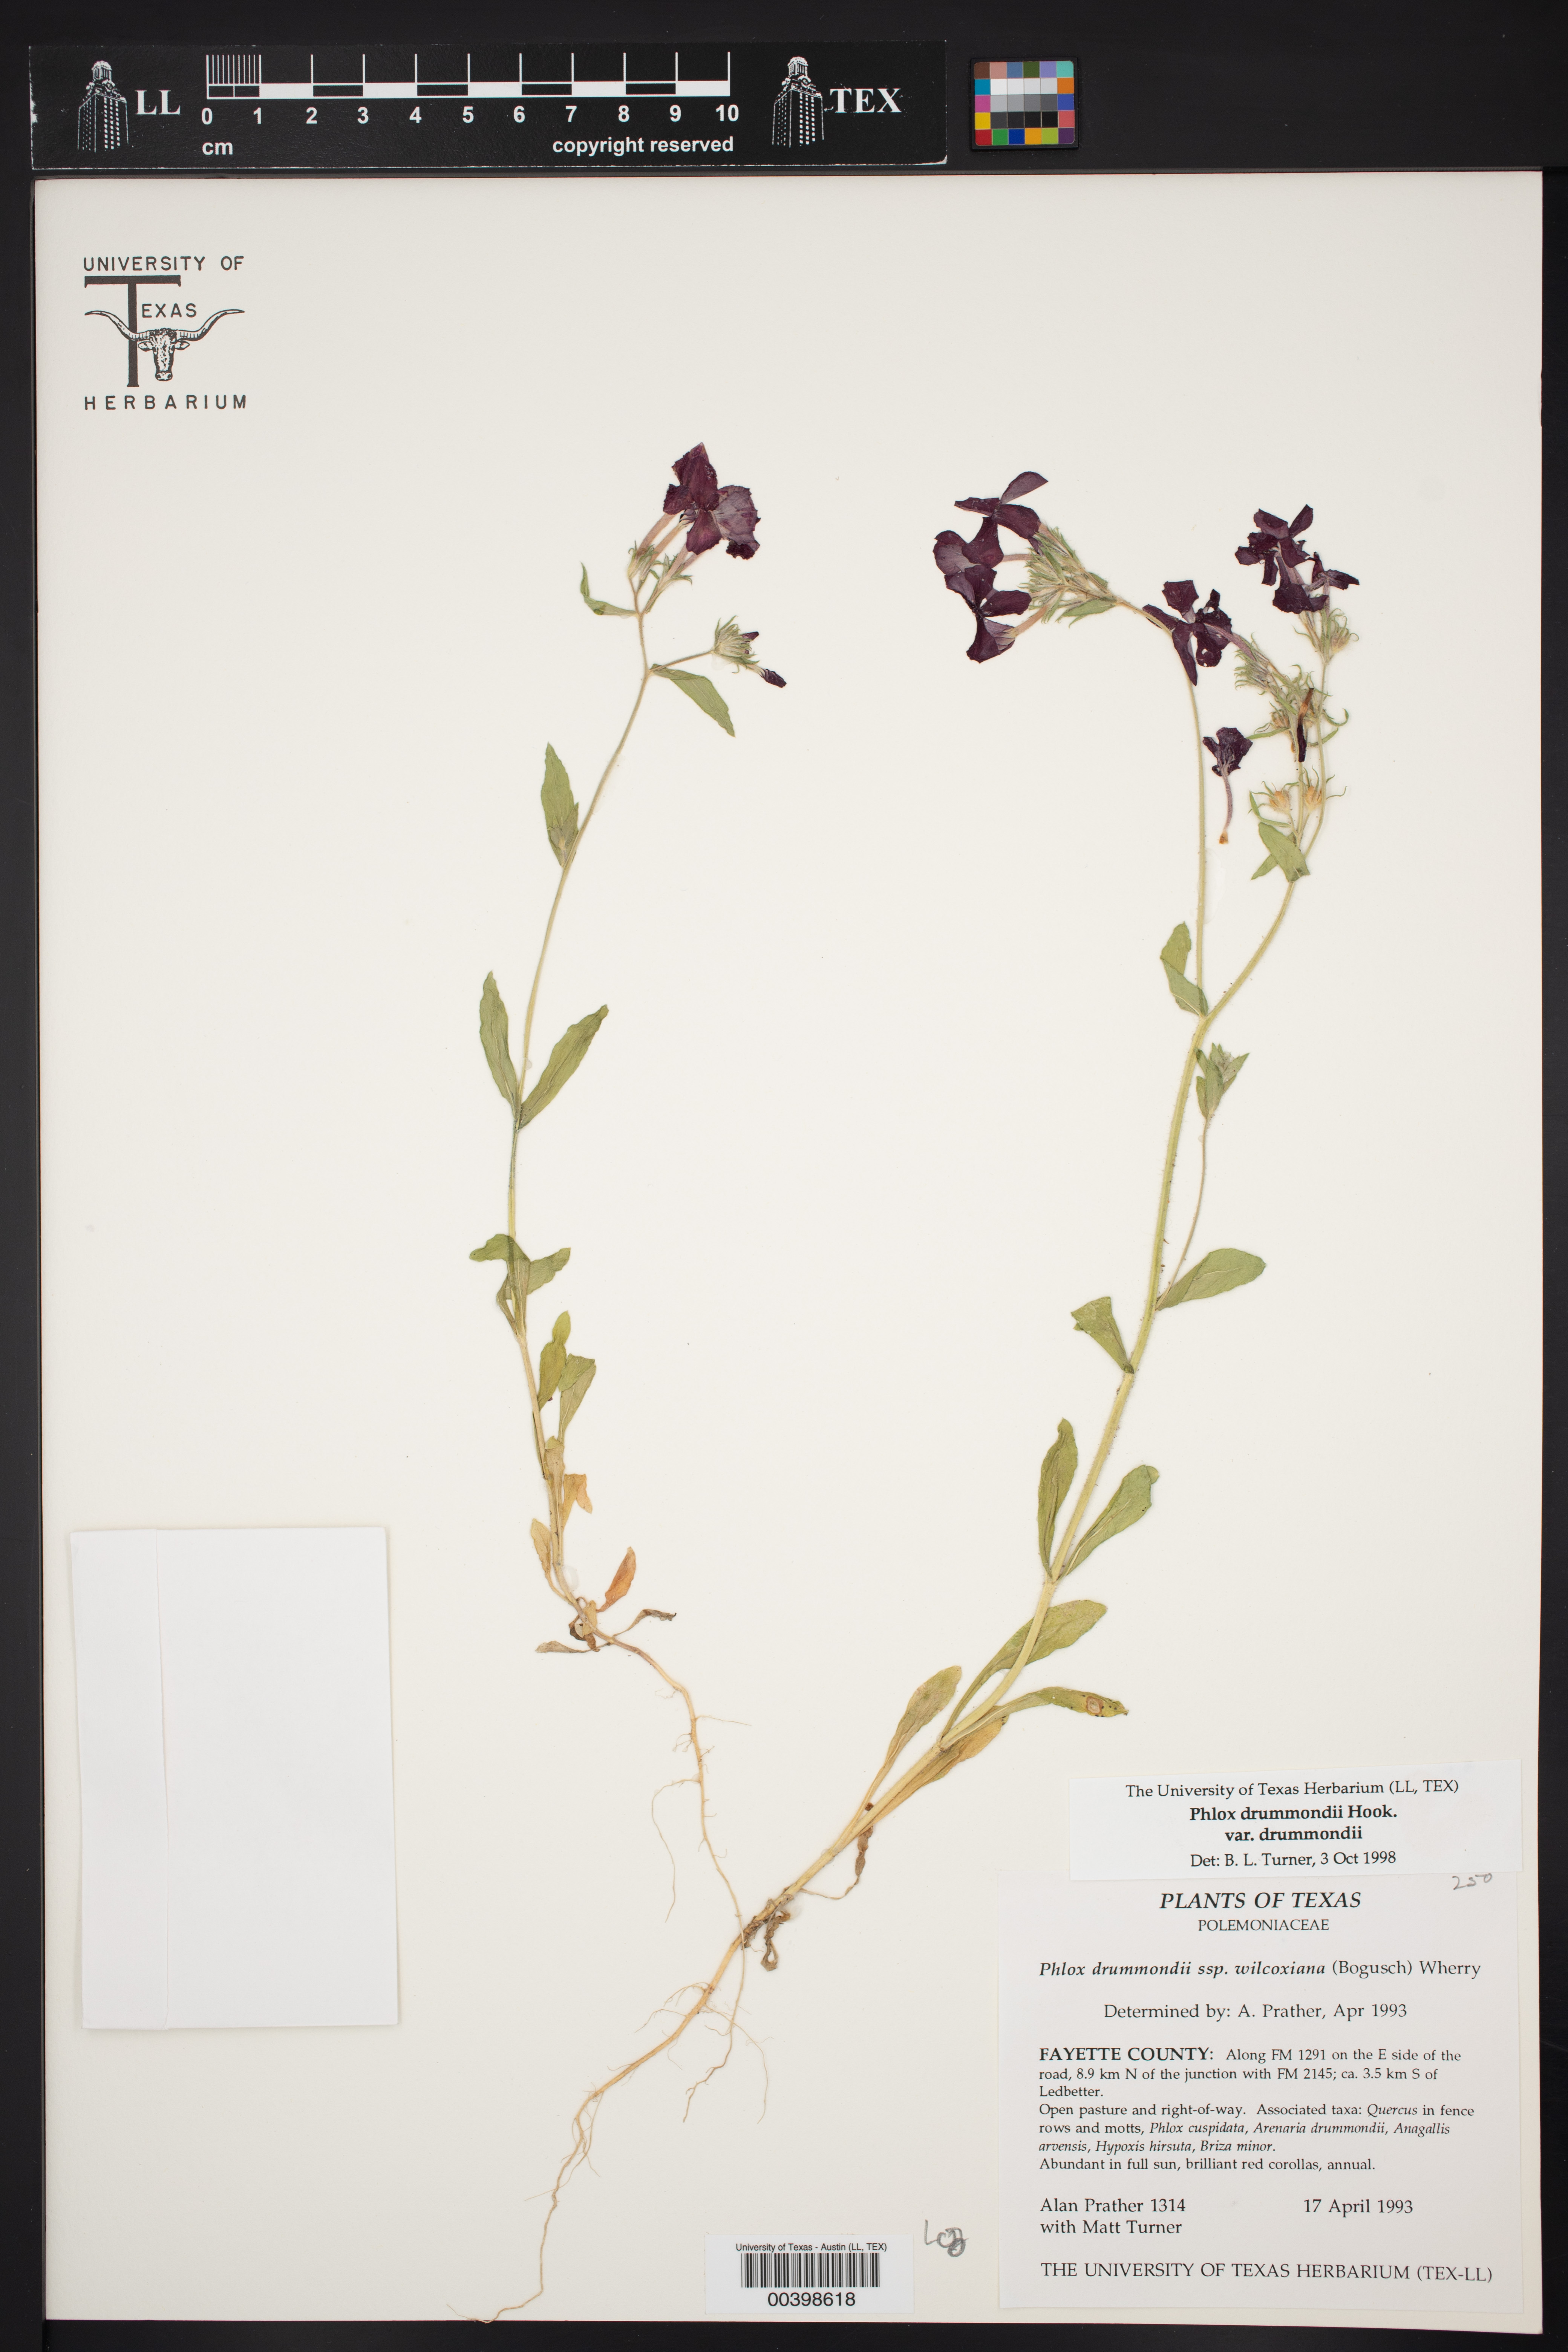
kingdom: Plantae
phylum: Tracheophyta
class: Magnoliopsida
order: Ericales
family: Polemoniaceae
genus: Phlox
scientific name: Phlox drummondii
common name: Drummond's phlox
